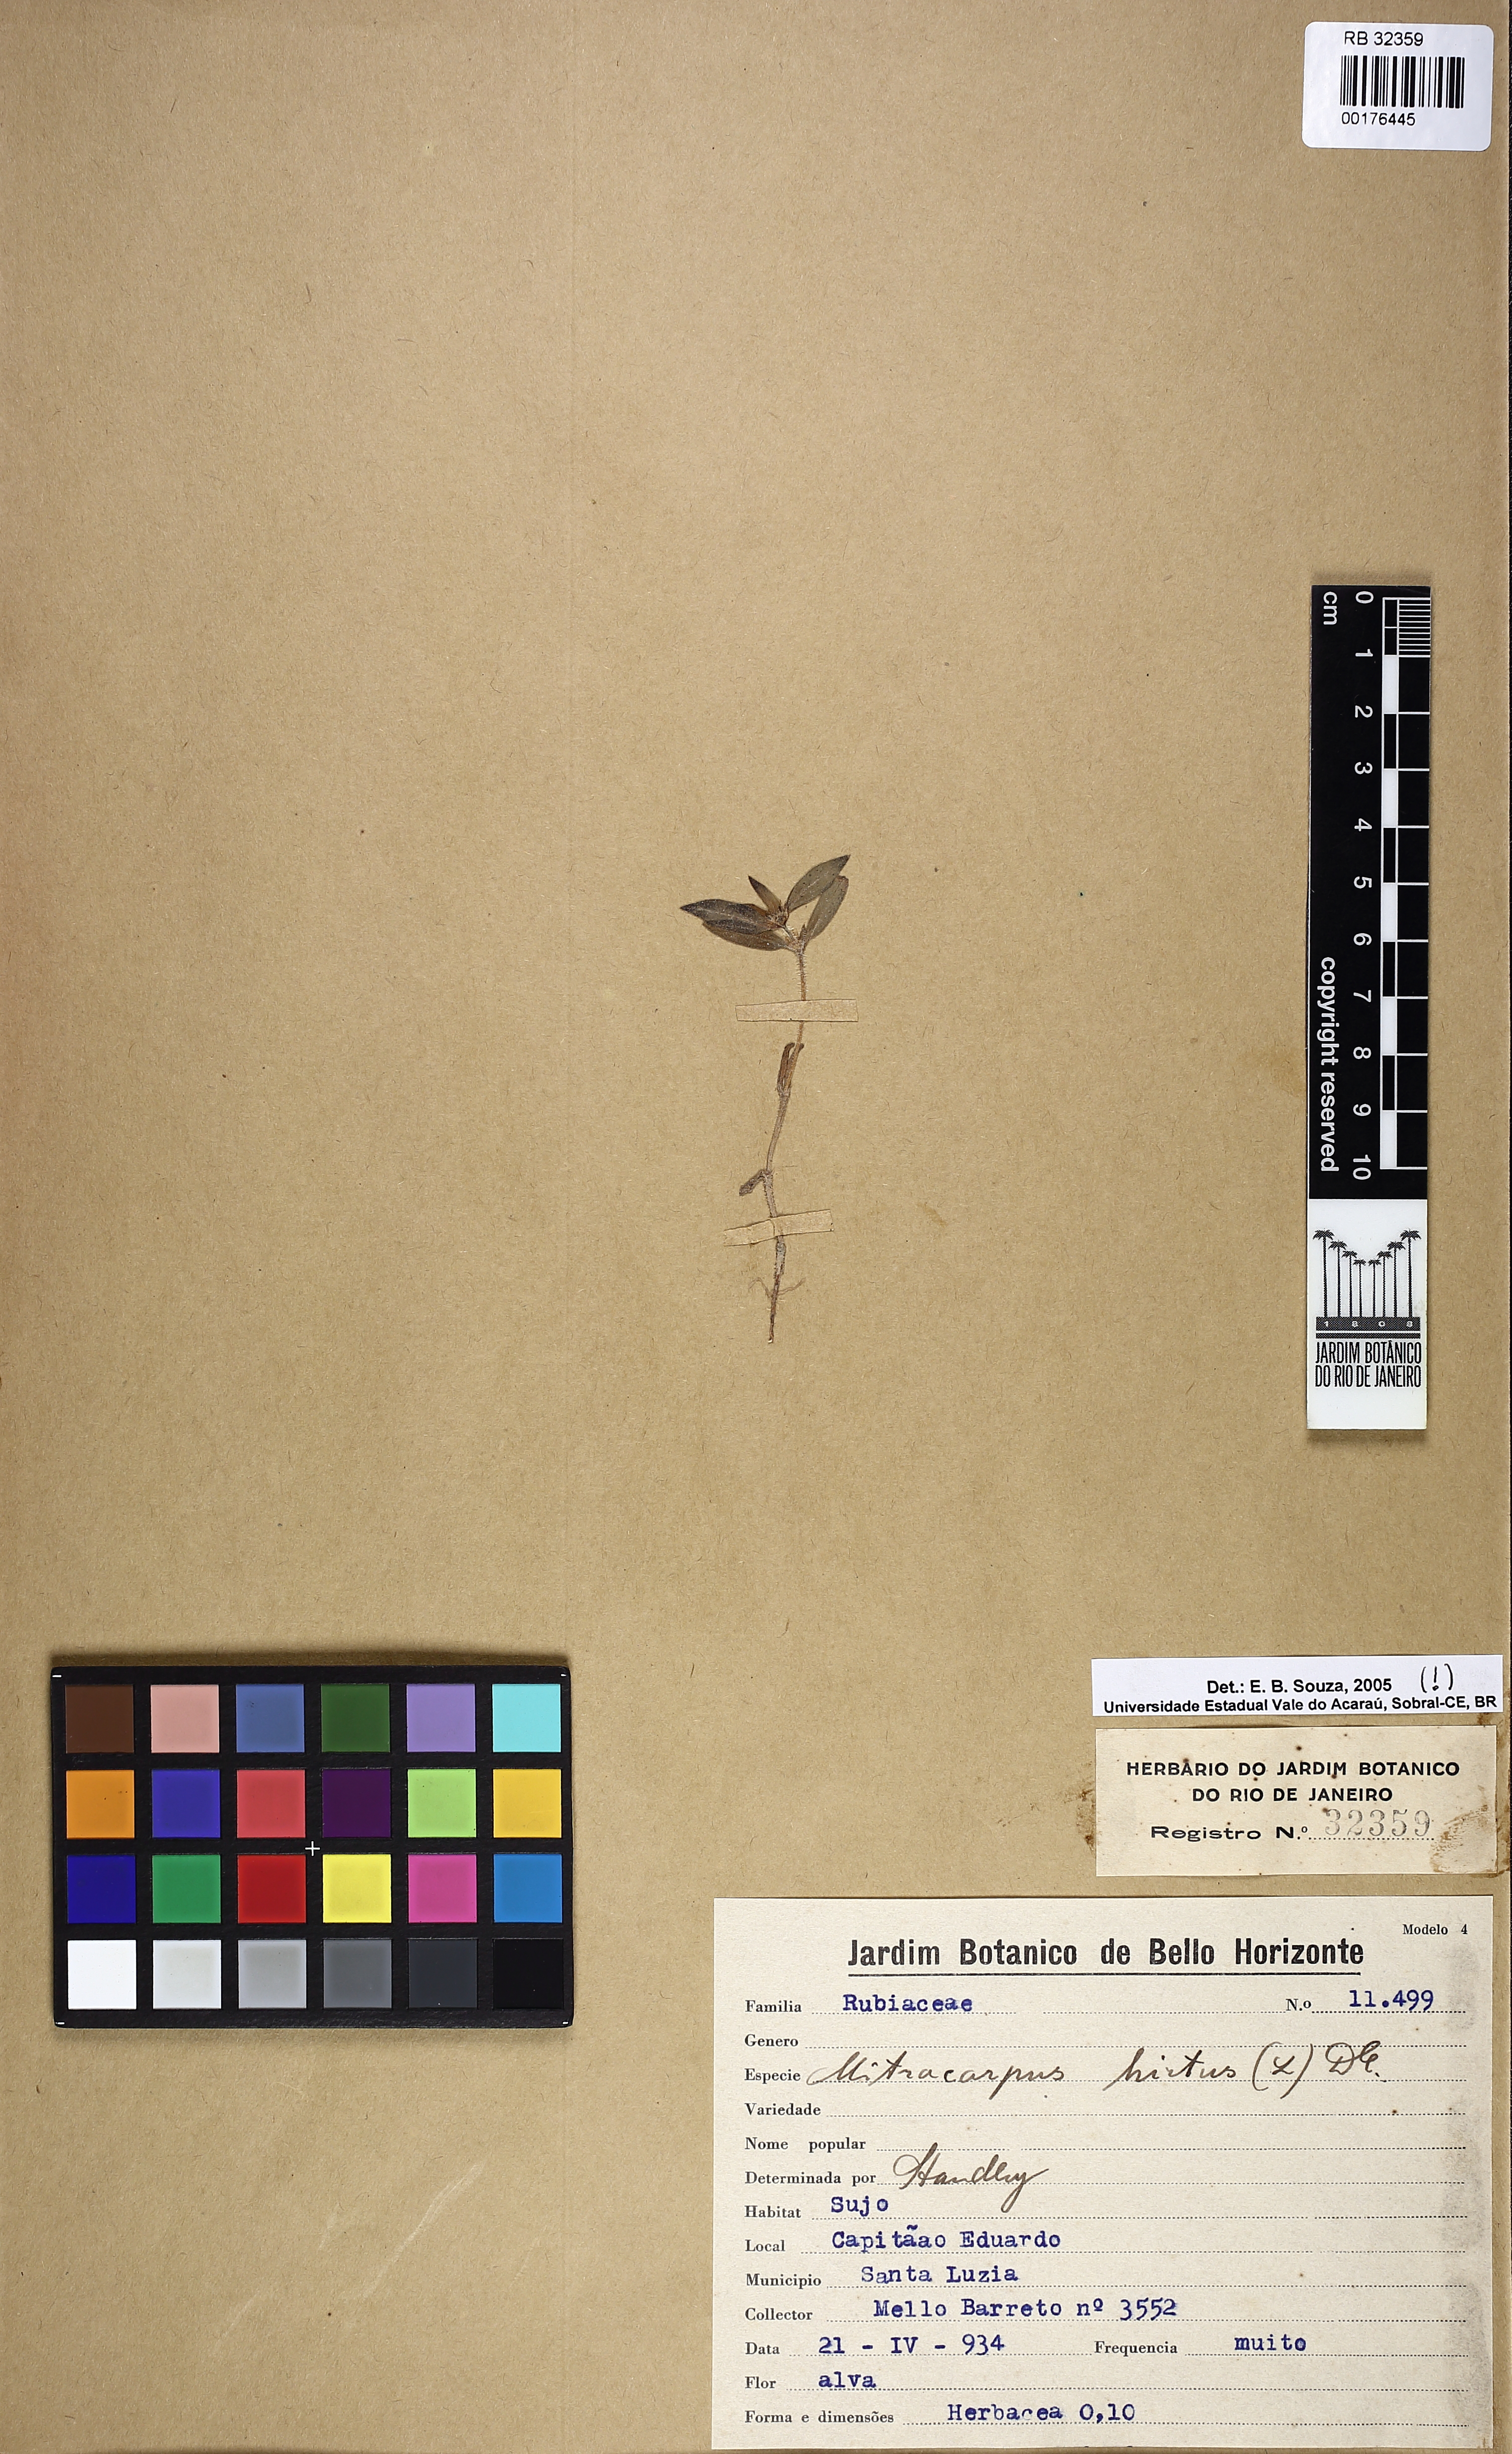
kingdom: Plantae
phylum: Tracheophyta
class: Magnoliopsida
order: Gentianales
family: Rubiaceae
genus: Mitracarpus
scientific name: Mitracarpus hirtus
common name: Tropical girdlepod
